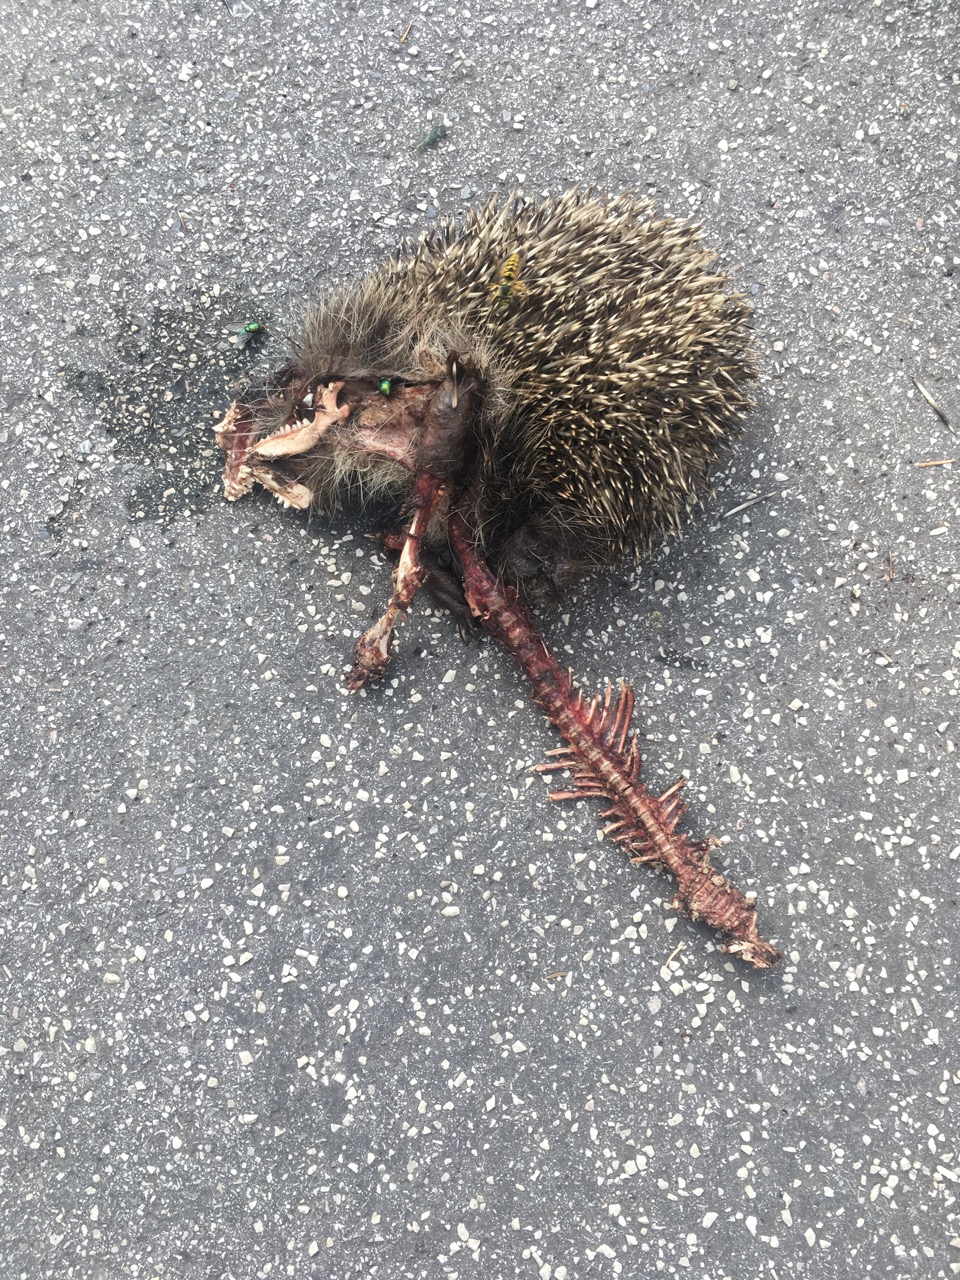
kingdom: Animalia
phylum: Chordata
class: Mammalia
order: Erinaceomorpha
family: Erinaceidae
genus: Erinaceus
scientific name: Erinaceus
